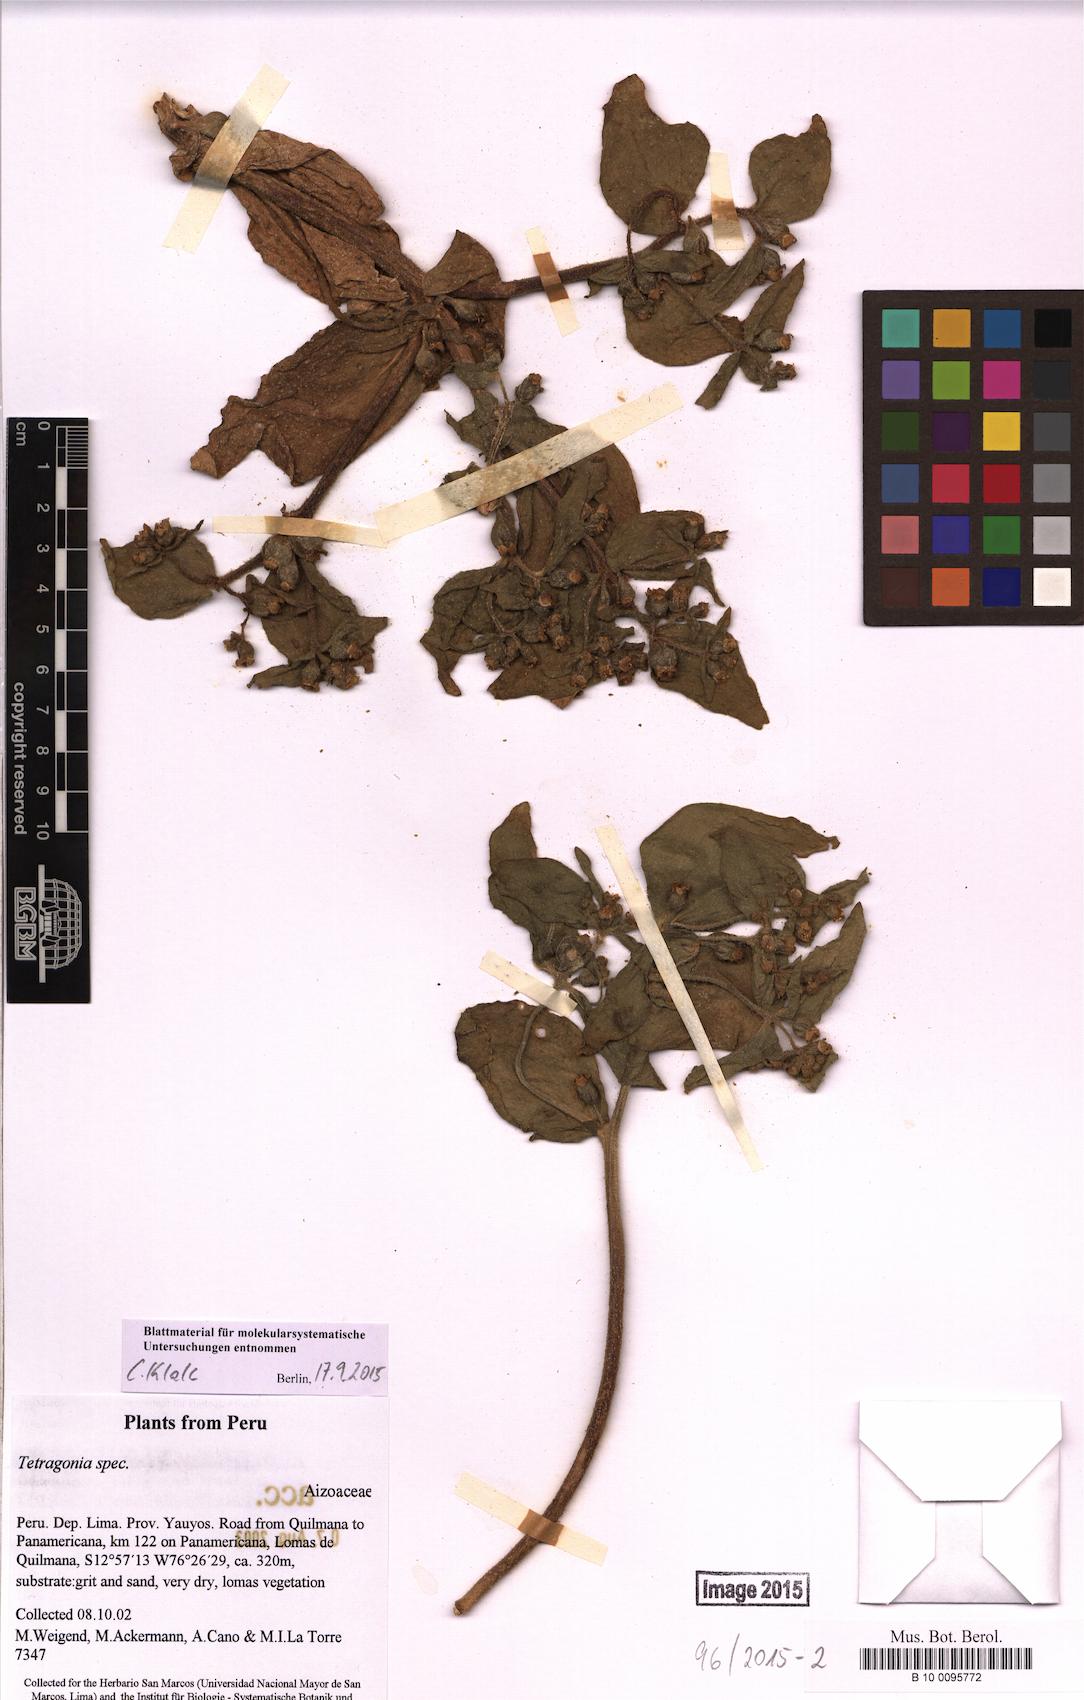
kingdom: Plantae
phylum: Tracheophyta
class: Magnoliopsida
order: Caryophyllales
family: Aizoaceae
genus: Tetragonia
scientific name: Tetragonia
